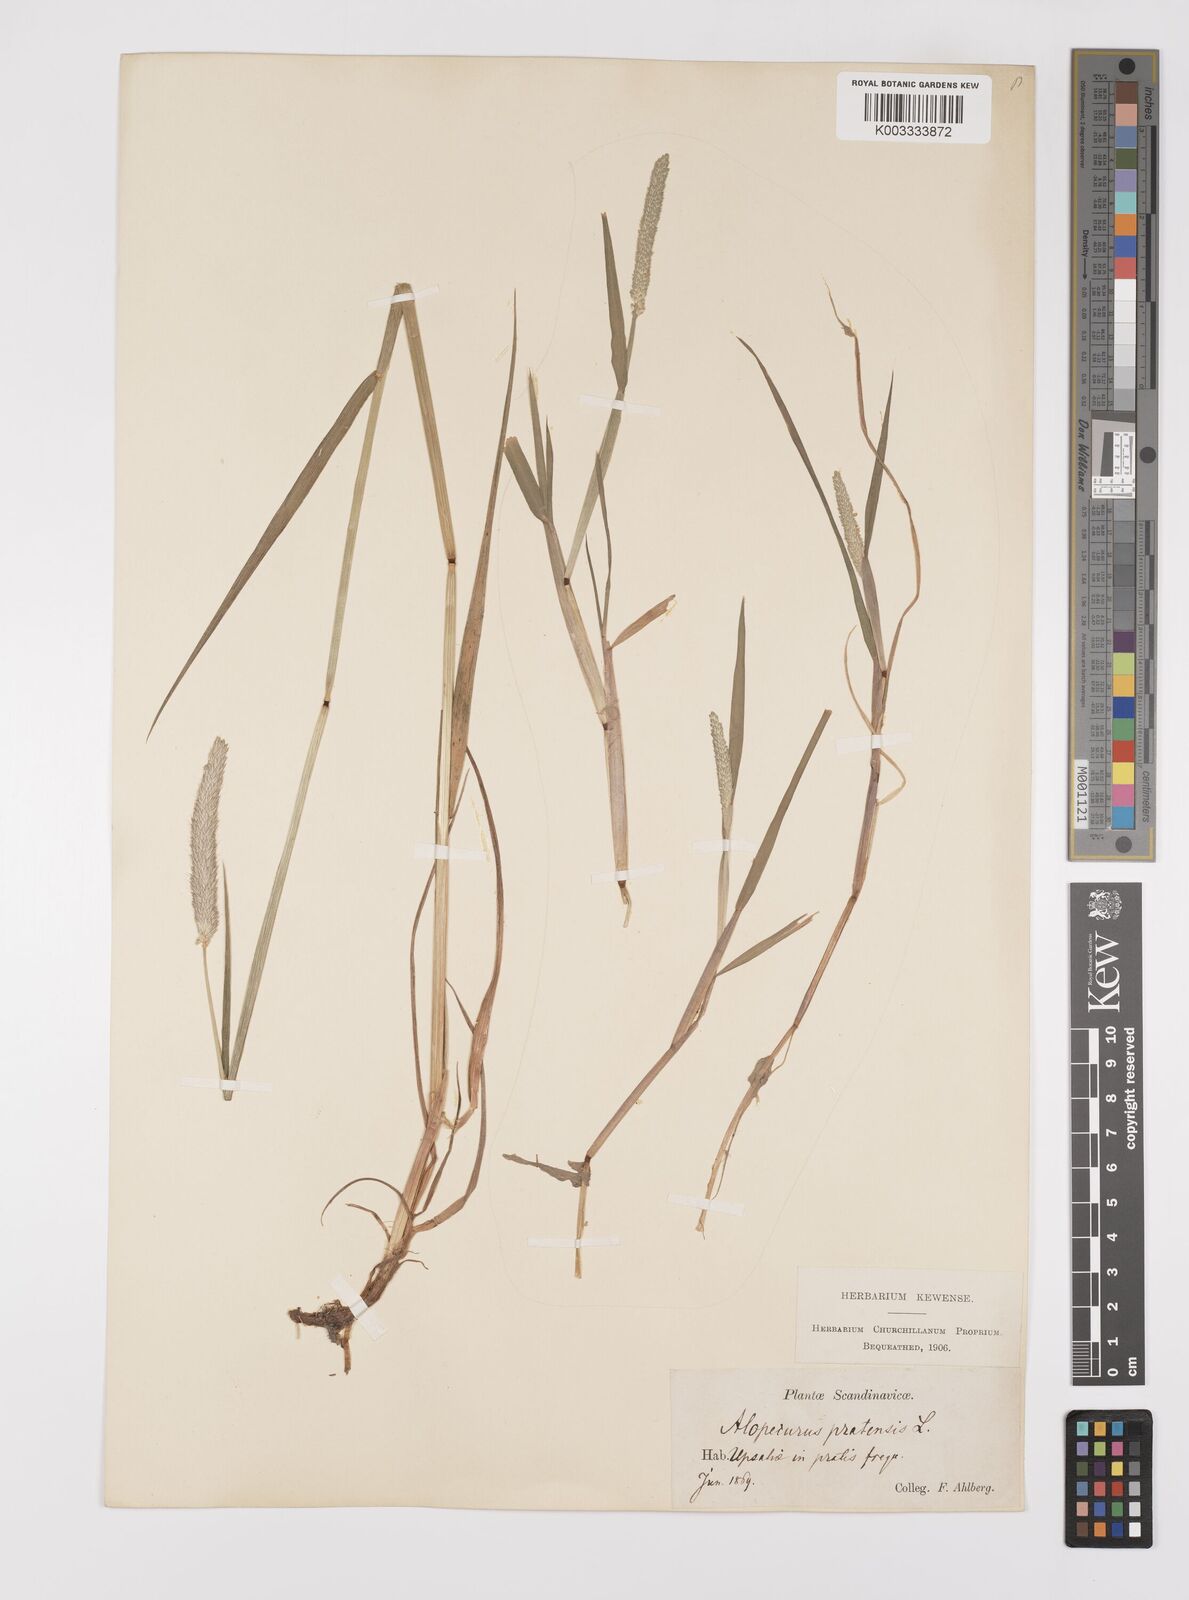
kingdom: Plantae
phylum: Tracheophyta
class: Liliopsida
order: Poales
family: Poaceae
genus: Alopecurus
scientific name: Alopecurus pratensis
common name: Meadow foxtail
